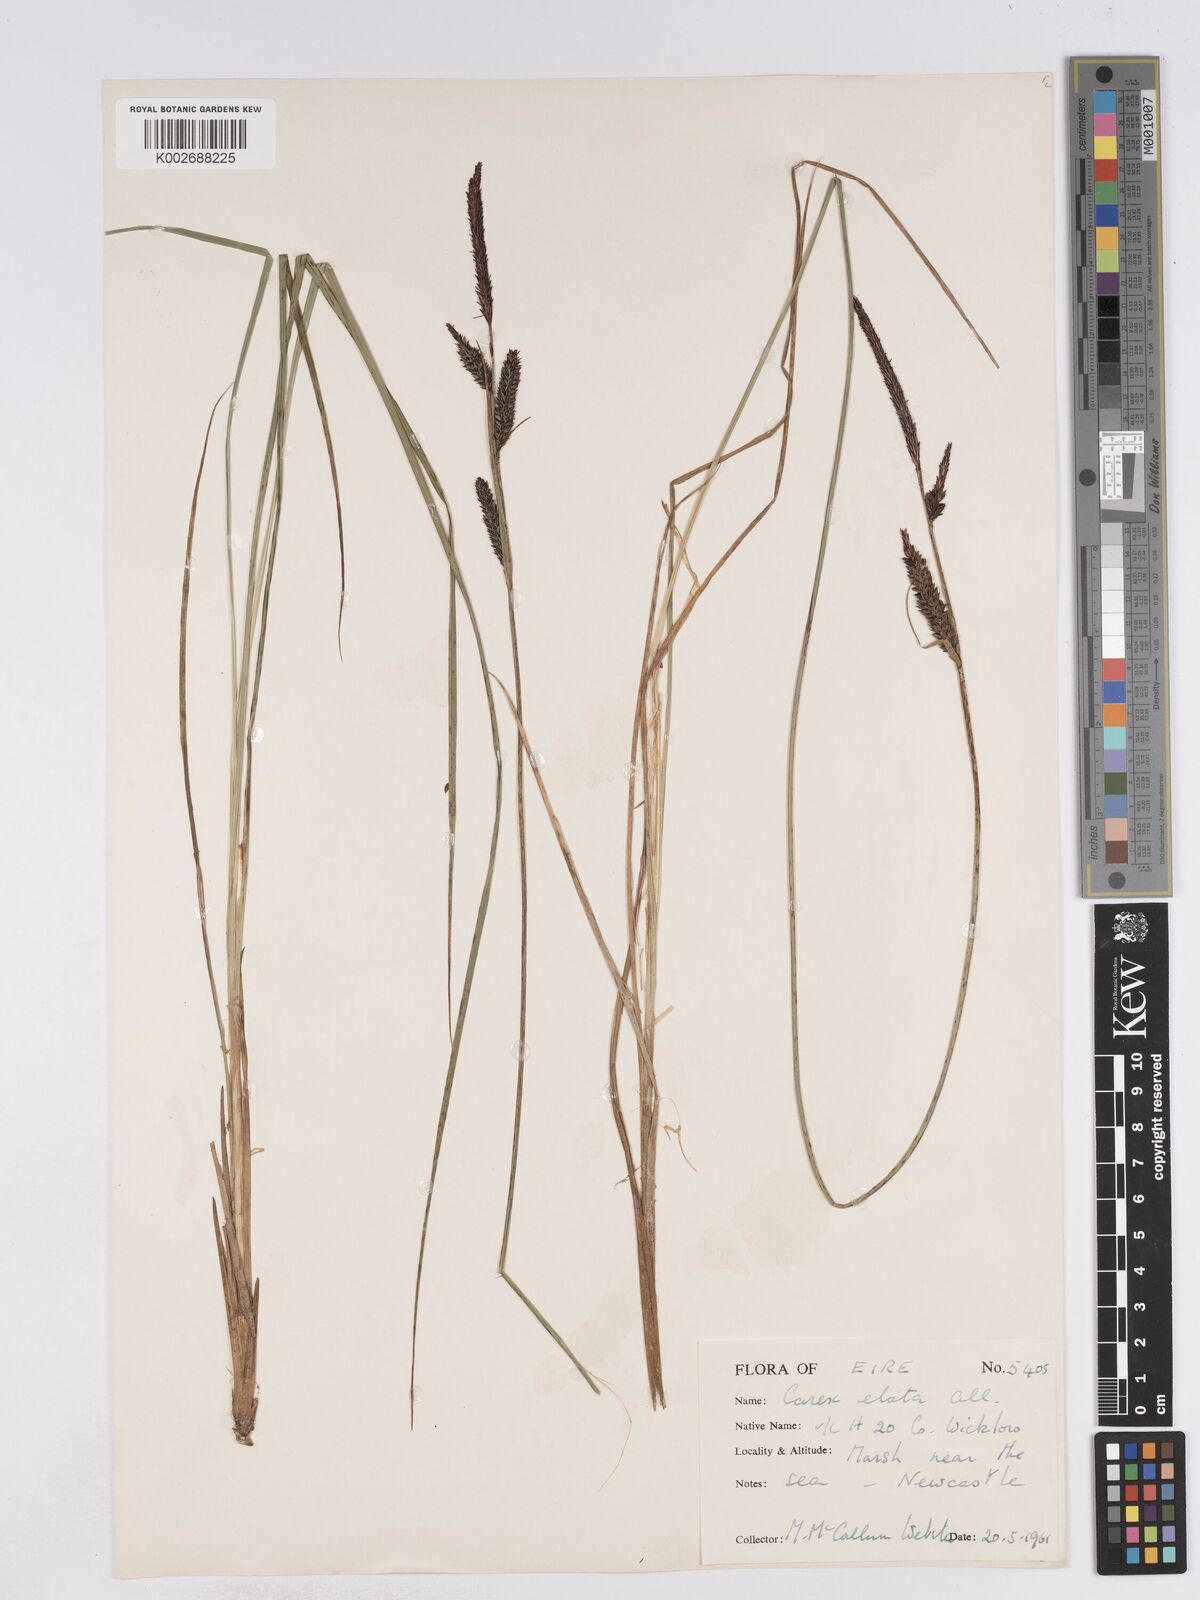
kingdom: Plantae
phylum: Tracheophyta
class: Liliopsida
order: Poales
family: Cyperaceae
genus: Carex
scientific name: Carex elata
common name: Tufted sedge
